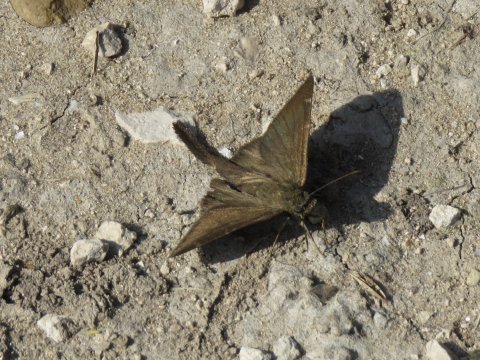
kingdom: Animalia
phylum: Arthropoda
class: Insecta
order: Lepidoptera
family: Hesperiidae
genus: Urbanus
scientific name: Urbanus procne
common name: Brown Longtail
